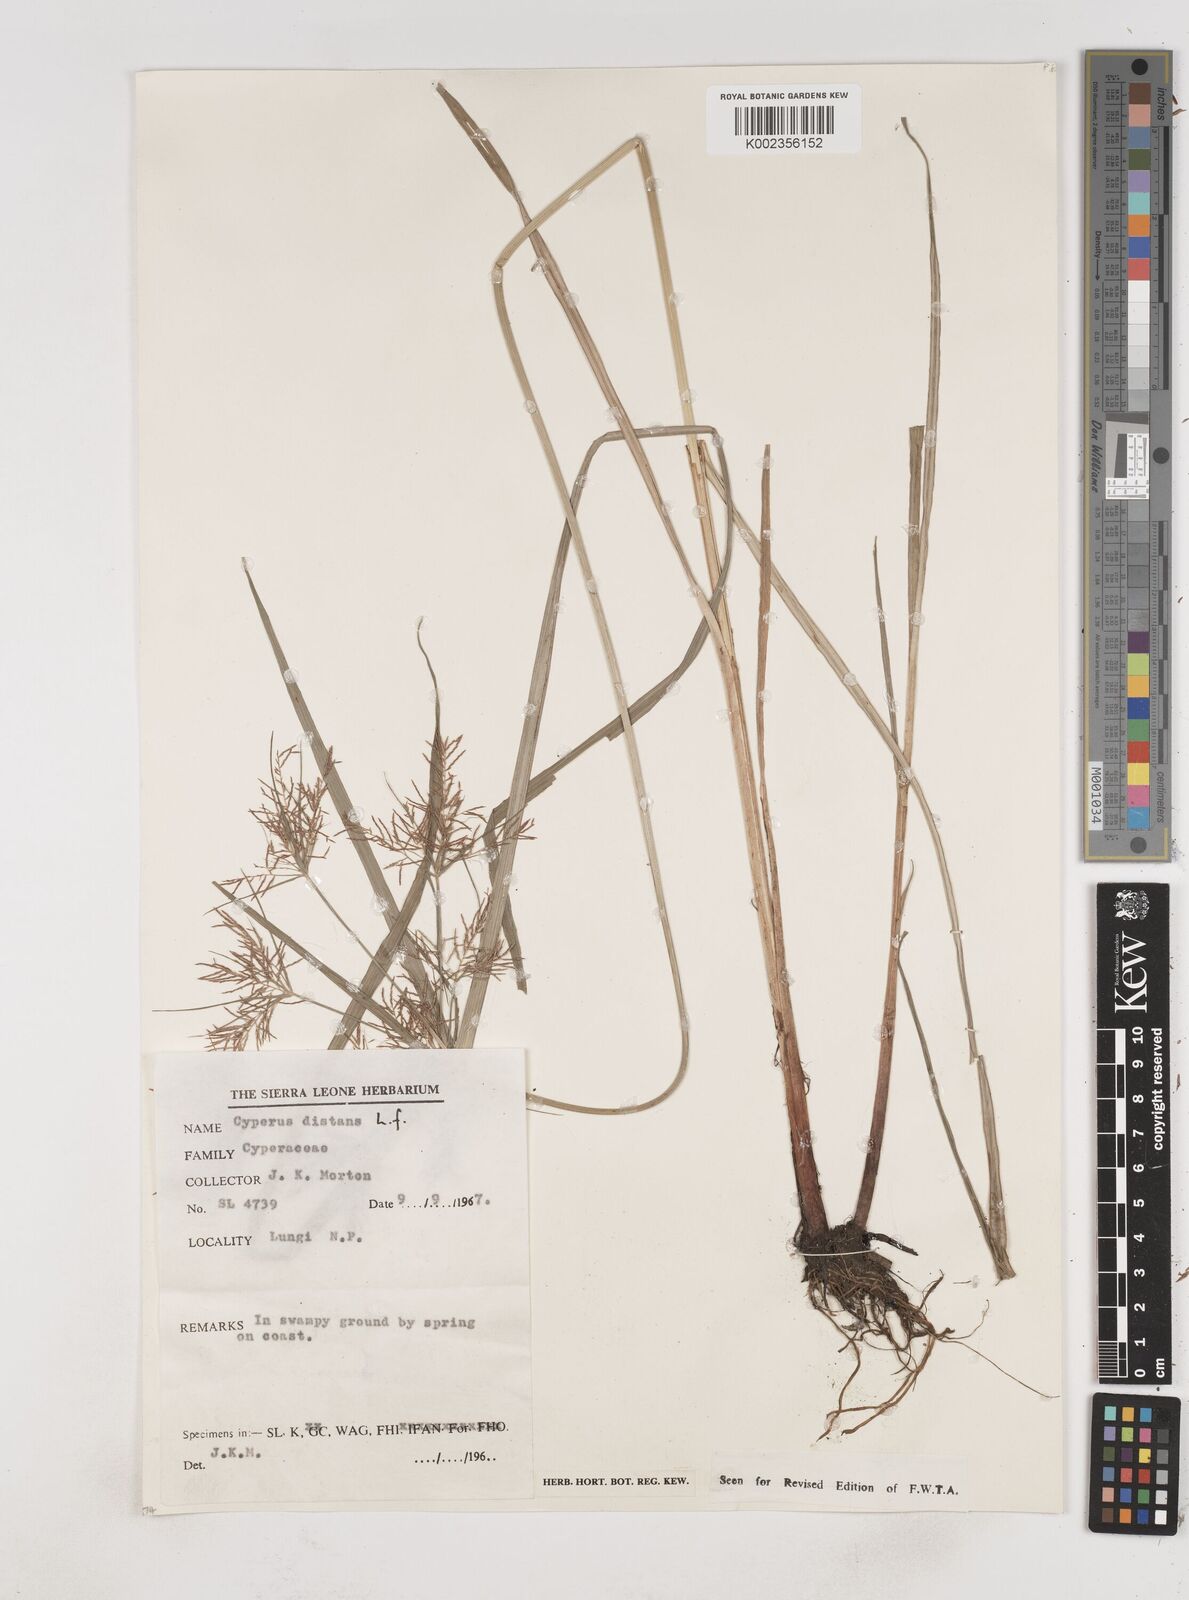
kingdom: Plantae
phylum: Tracheophyta
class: Liliopsida
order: Poales
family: Cyperaceae
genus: Cyperus
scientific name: Cyperus distans
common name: Slender cyperus
